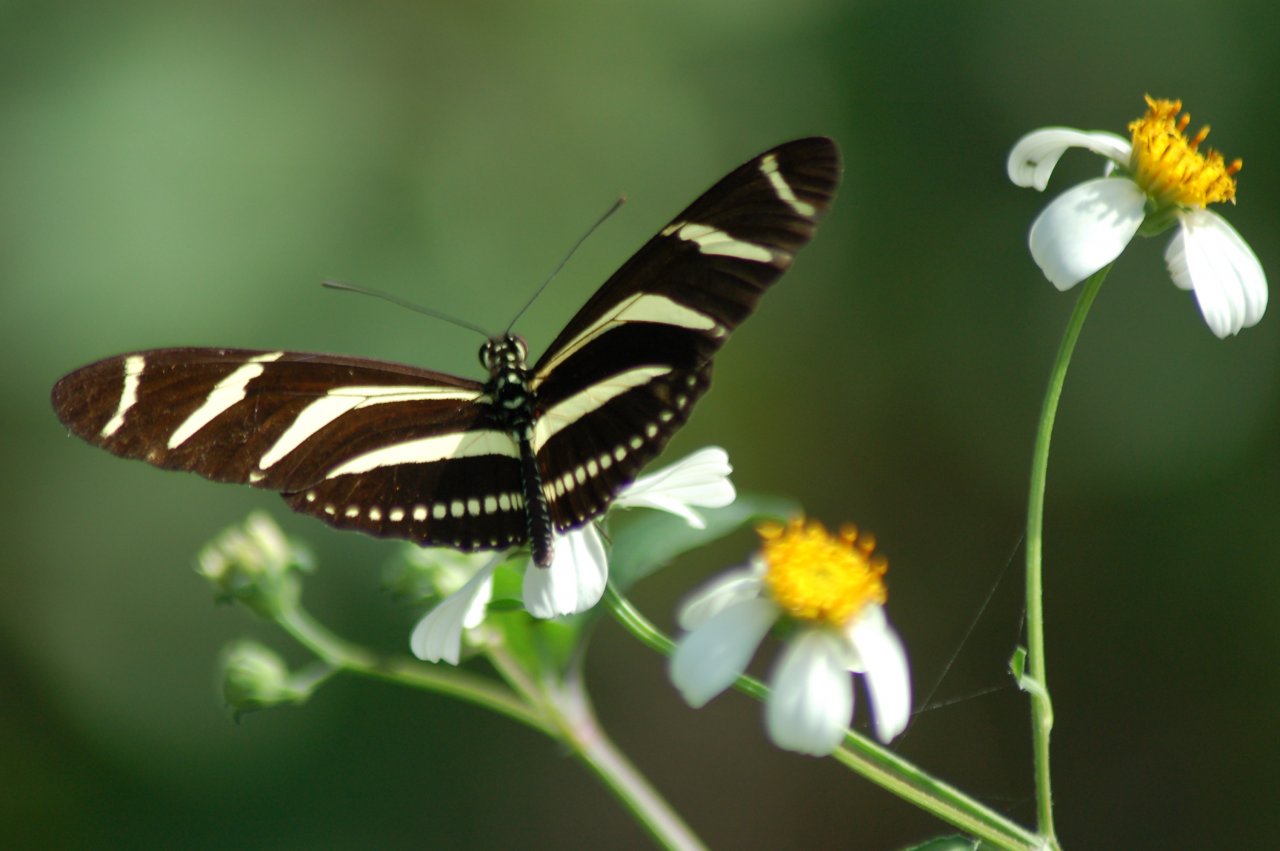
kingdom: Animalia
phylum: Arthropoda
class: Insecta
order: Lepidoptera
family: Nymphalidae
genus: Heliconius
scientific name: Heliconius charithonia
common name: Zebra Longwing
